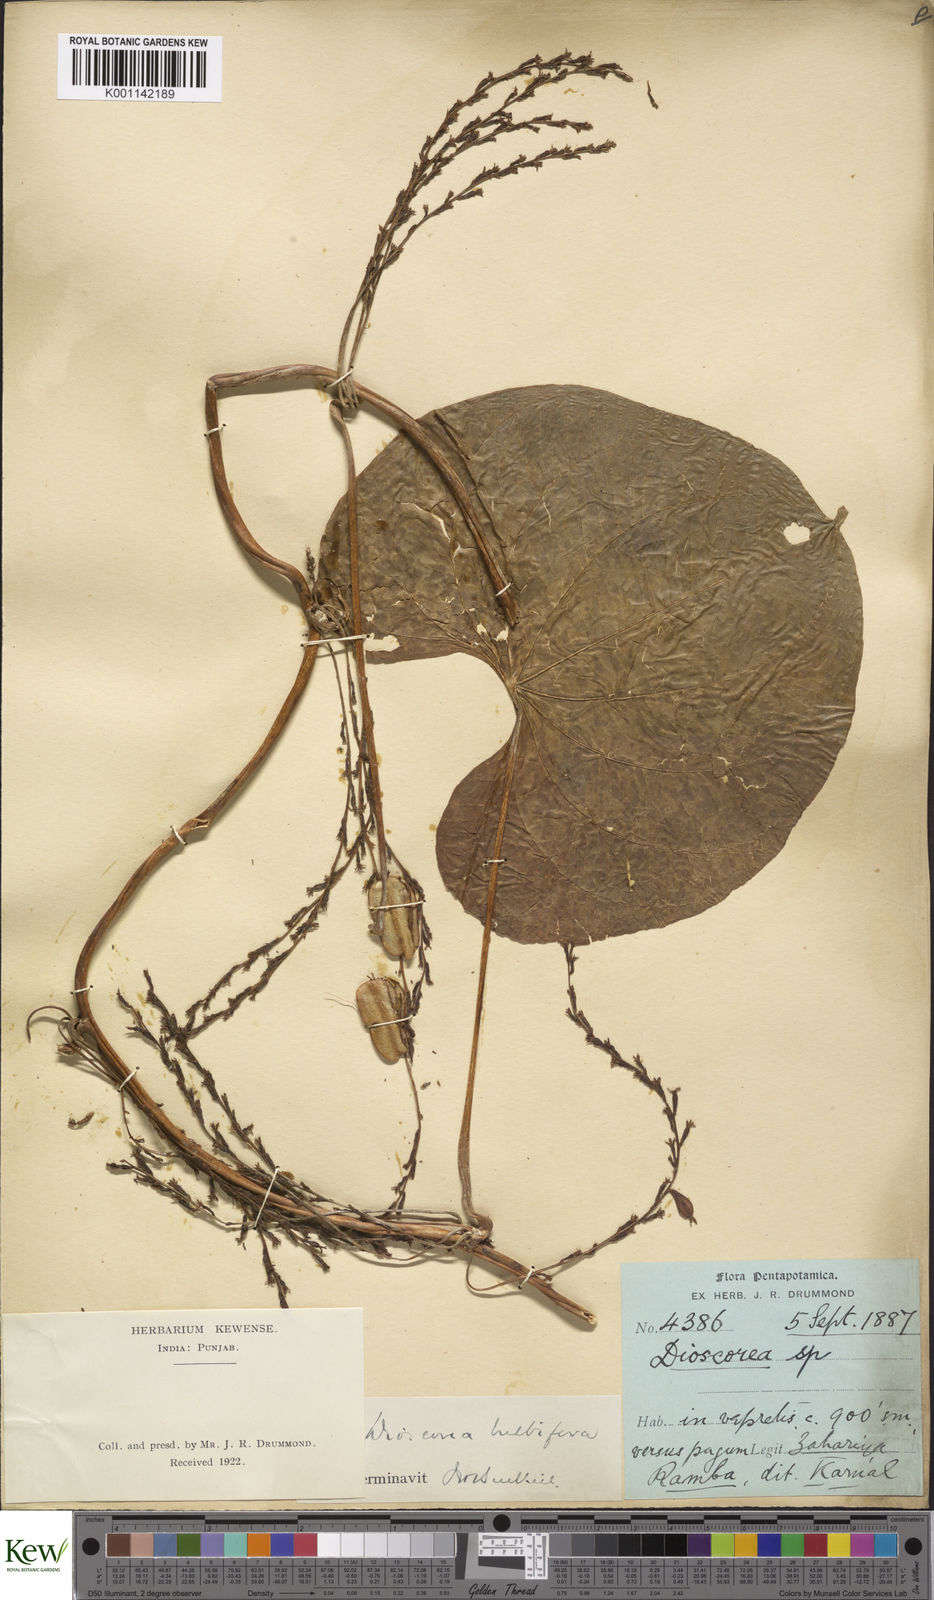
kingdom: Plantae
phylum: Tracheophyta
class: Liliopsida
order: Dioscoreales
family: Dioscoreaceae
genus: Dioscorea
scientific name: Dioscorea bulbifera
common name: Air yam
